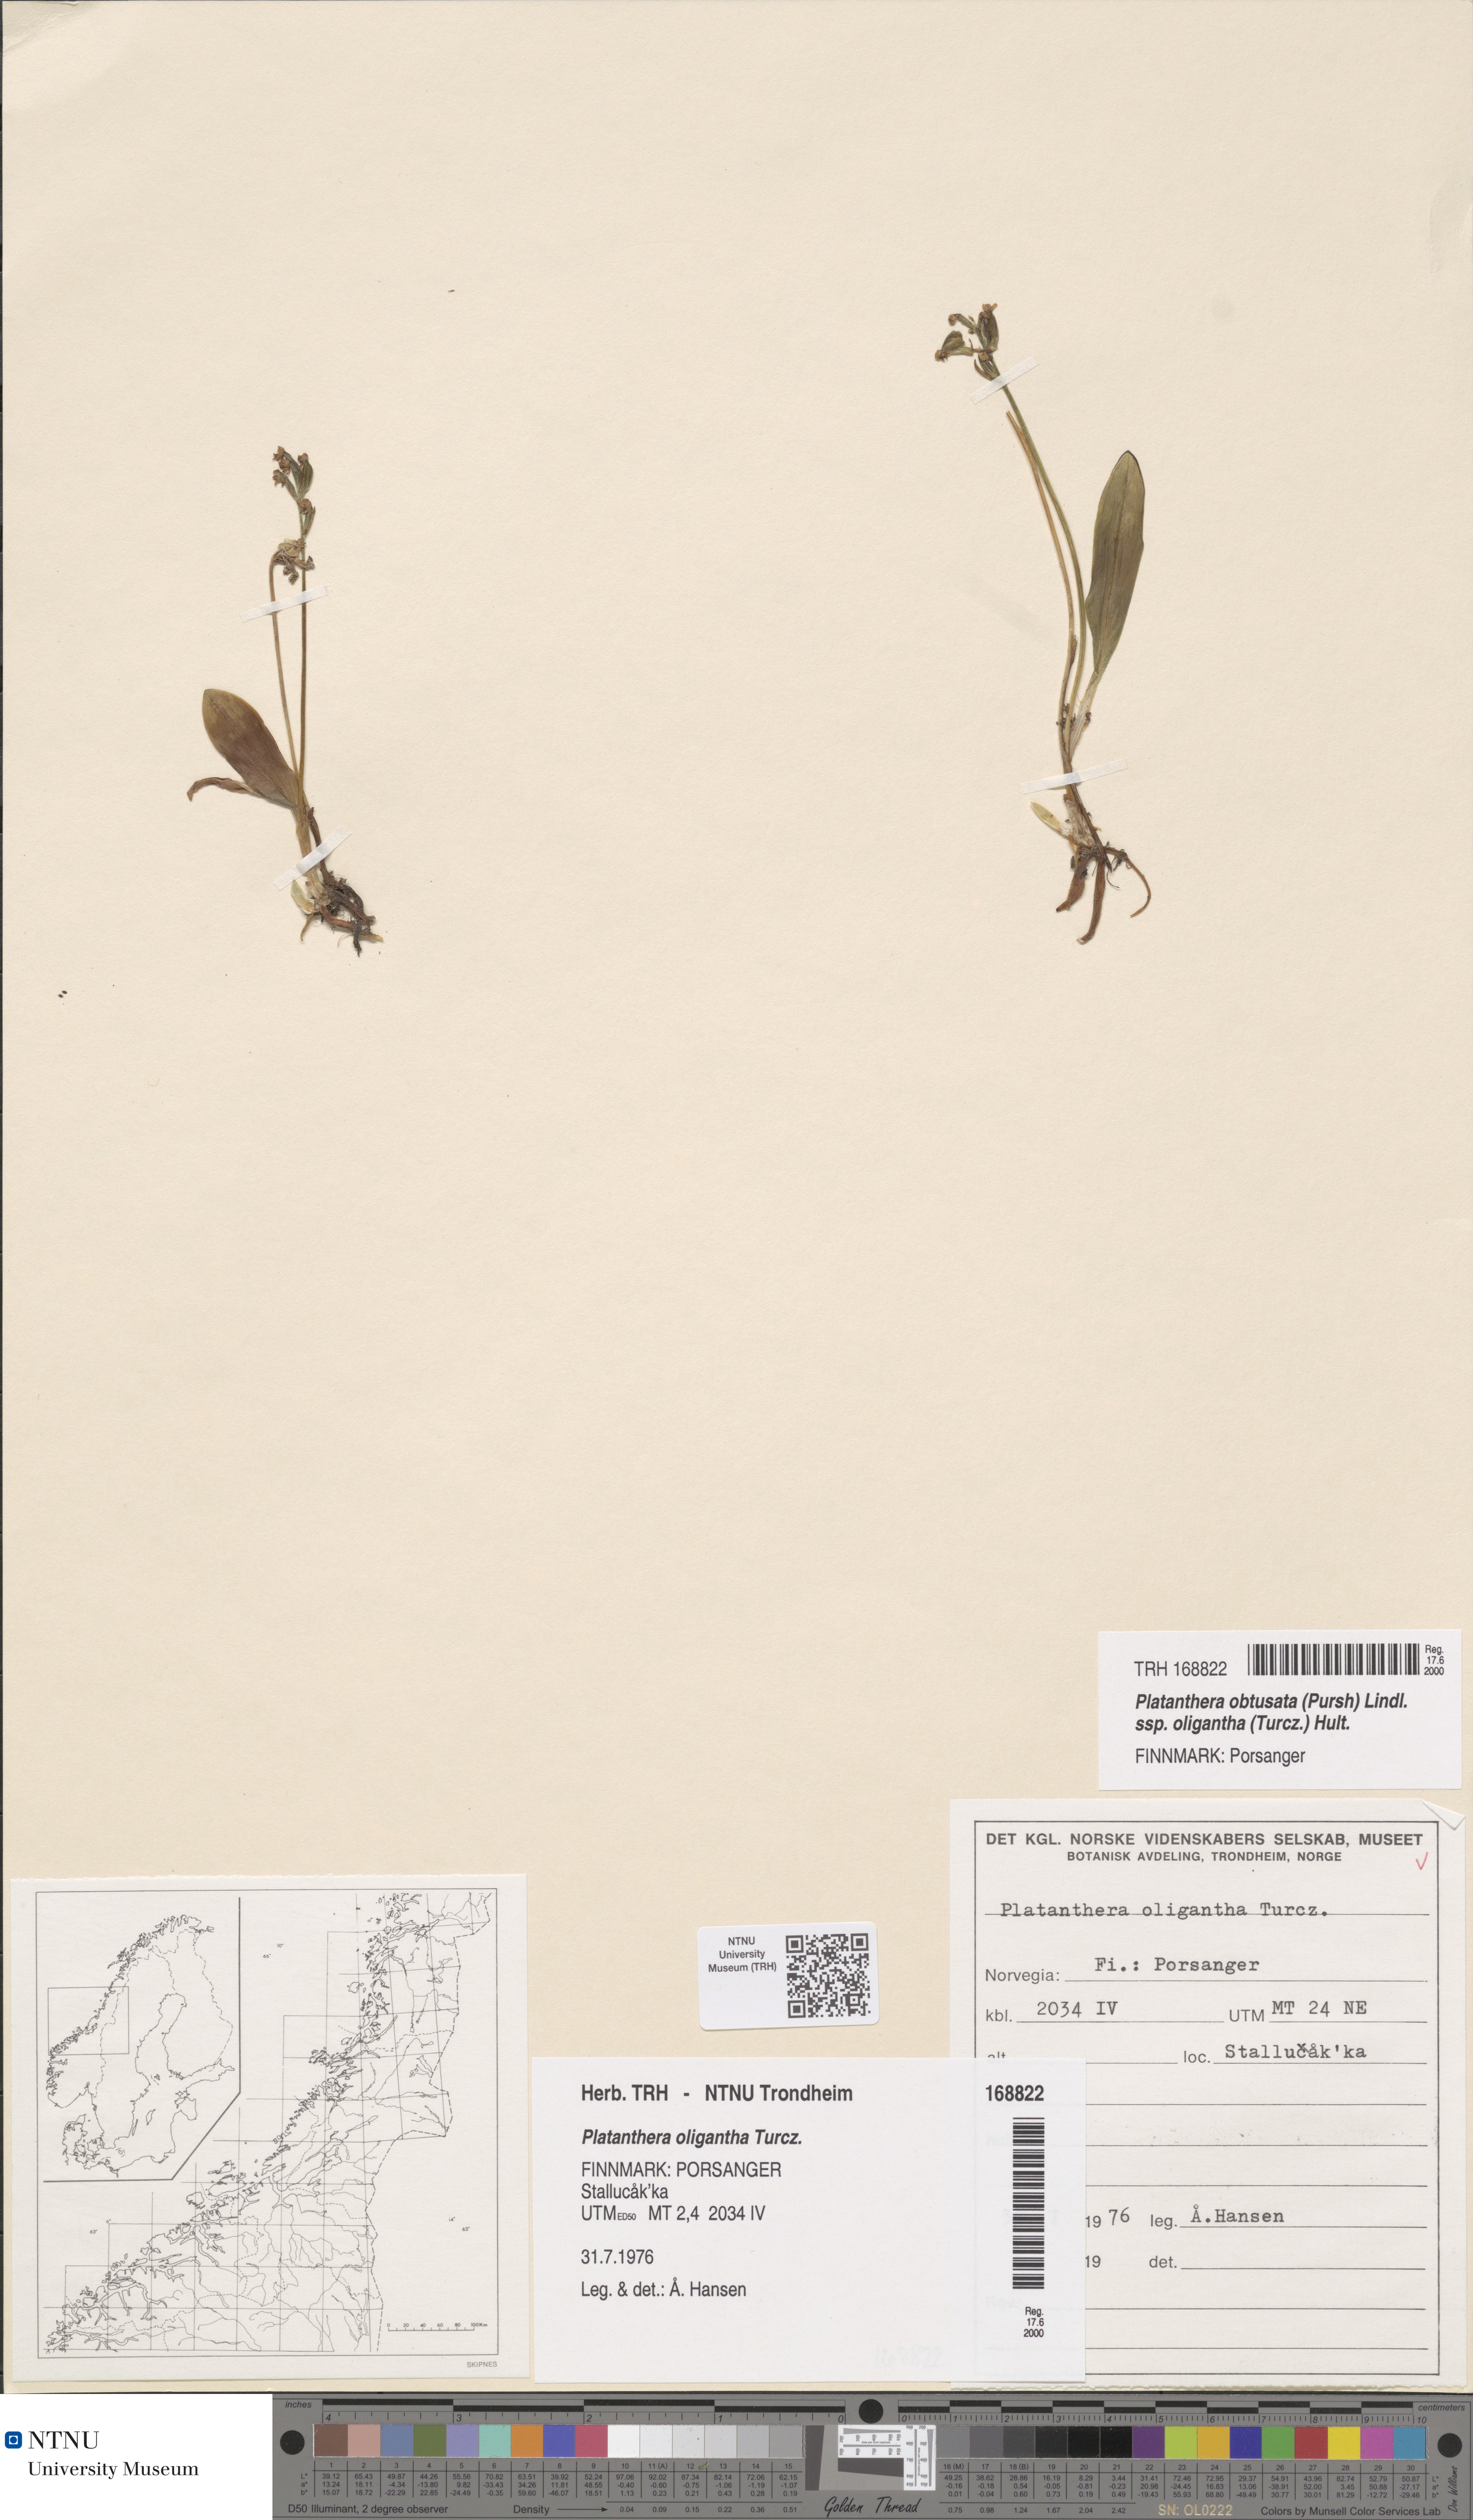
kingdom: Plantae
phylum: Tracheophyta
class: Liliopsida
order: Asparagales
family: Orchidaceae
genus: Platanthera
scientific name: Platanthera oligantha
